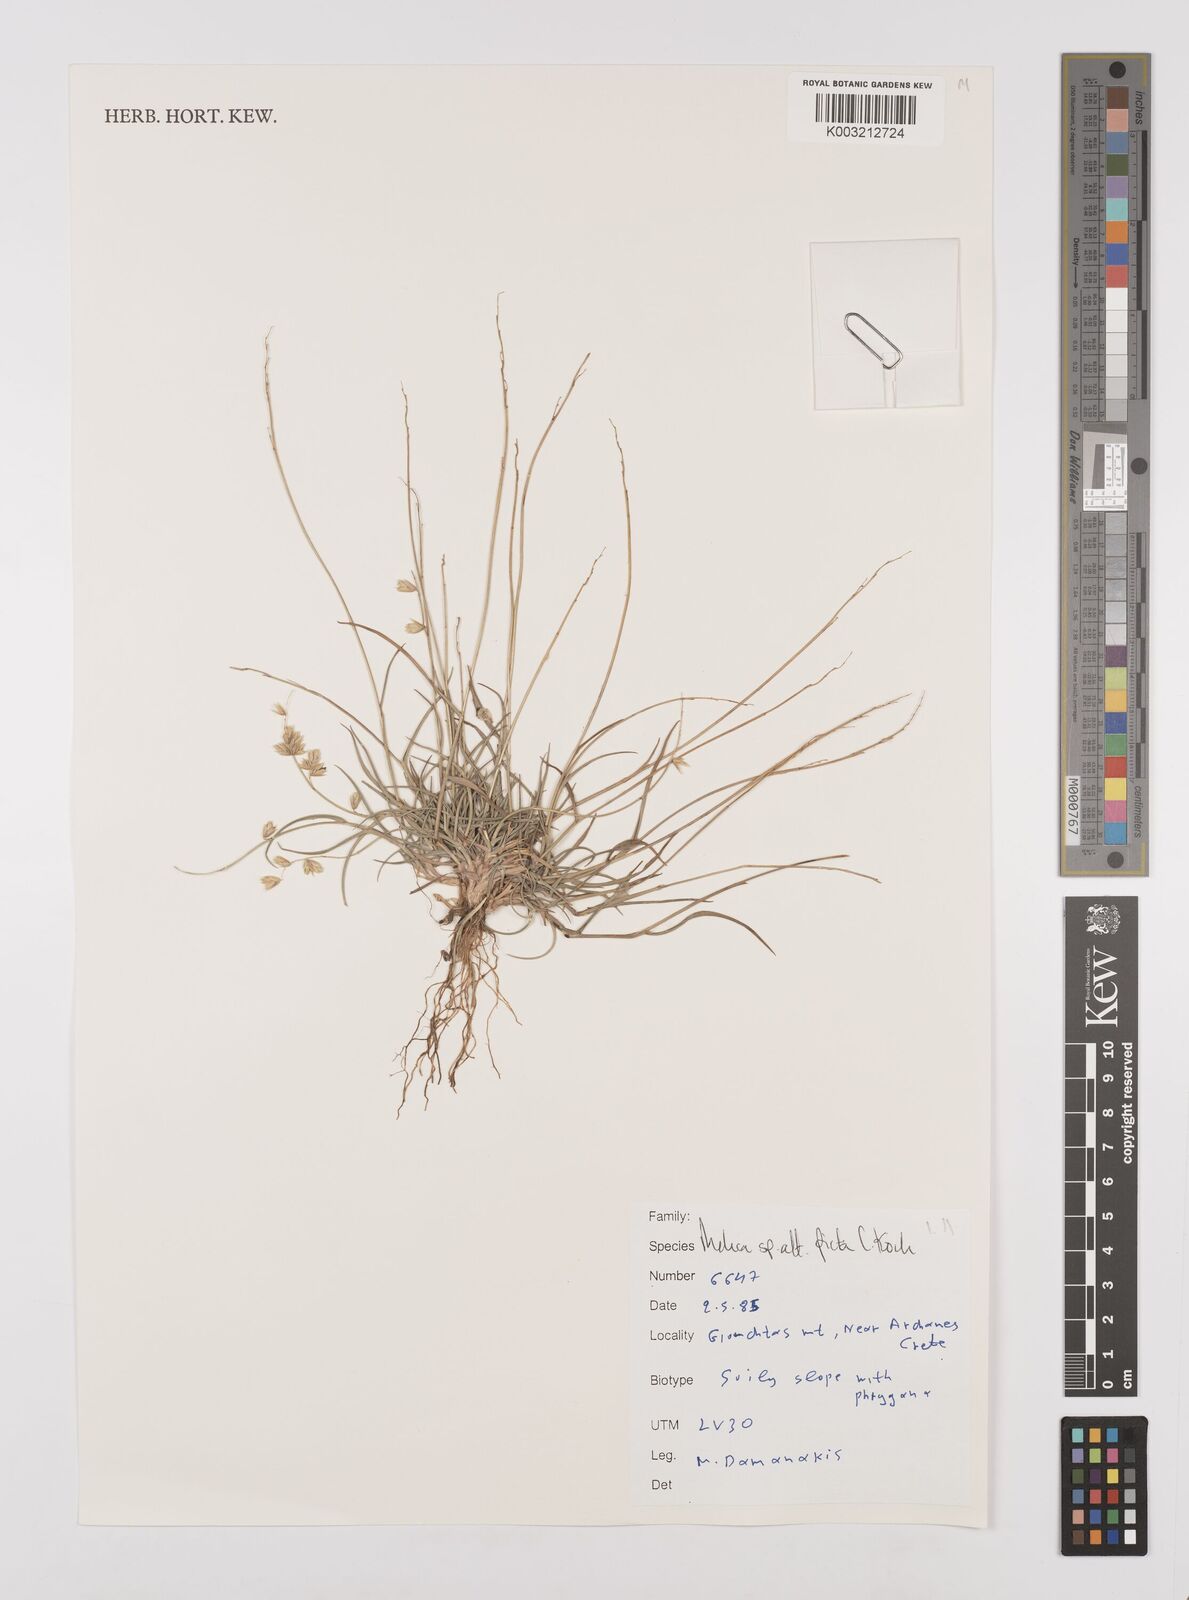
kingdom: Plantae
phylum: Tracheophyta
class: Liliopsida
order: Poales
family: Poaceae
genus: Melica
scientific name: Melica picta
